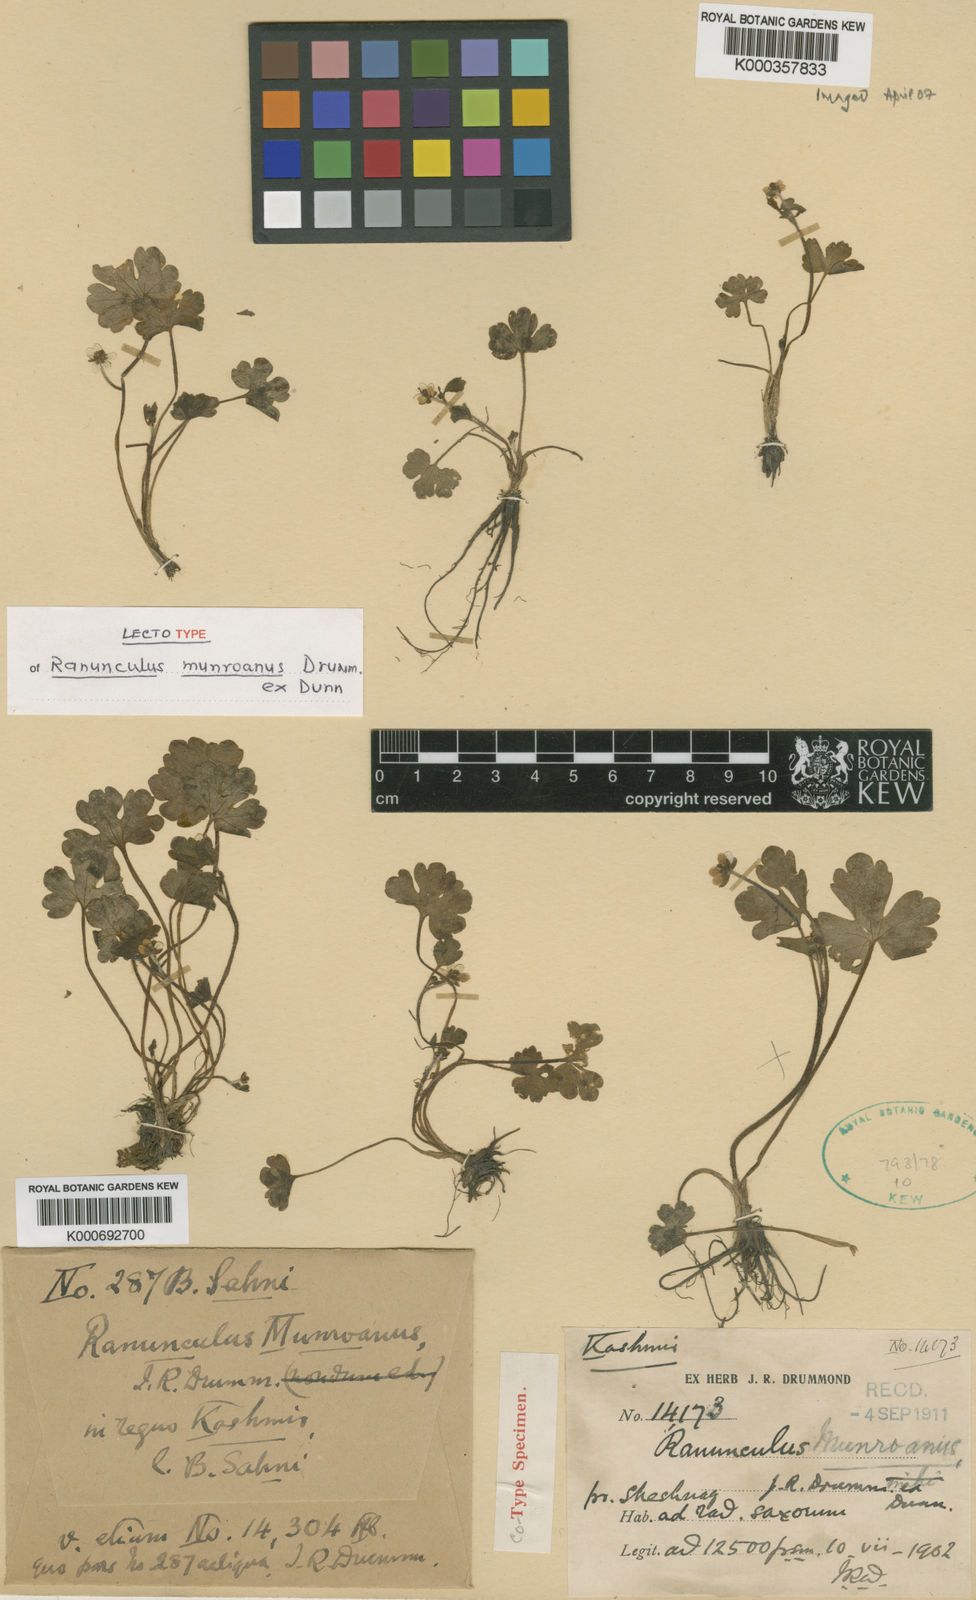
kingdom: Plantae
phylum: Tracheophyta
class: Magnoliopsida
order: Ranunculales
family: Ranunculaceae
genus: Ranunculus
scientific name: Ranunculus munroanus
